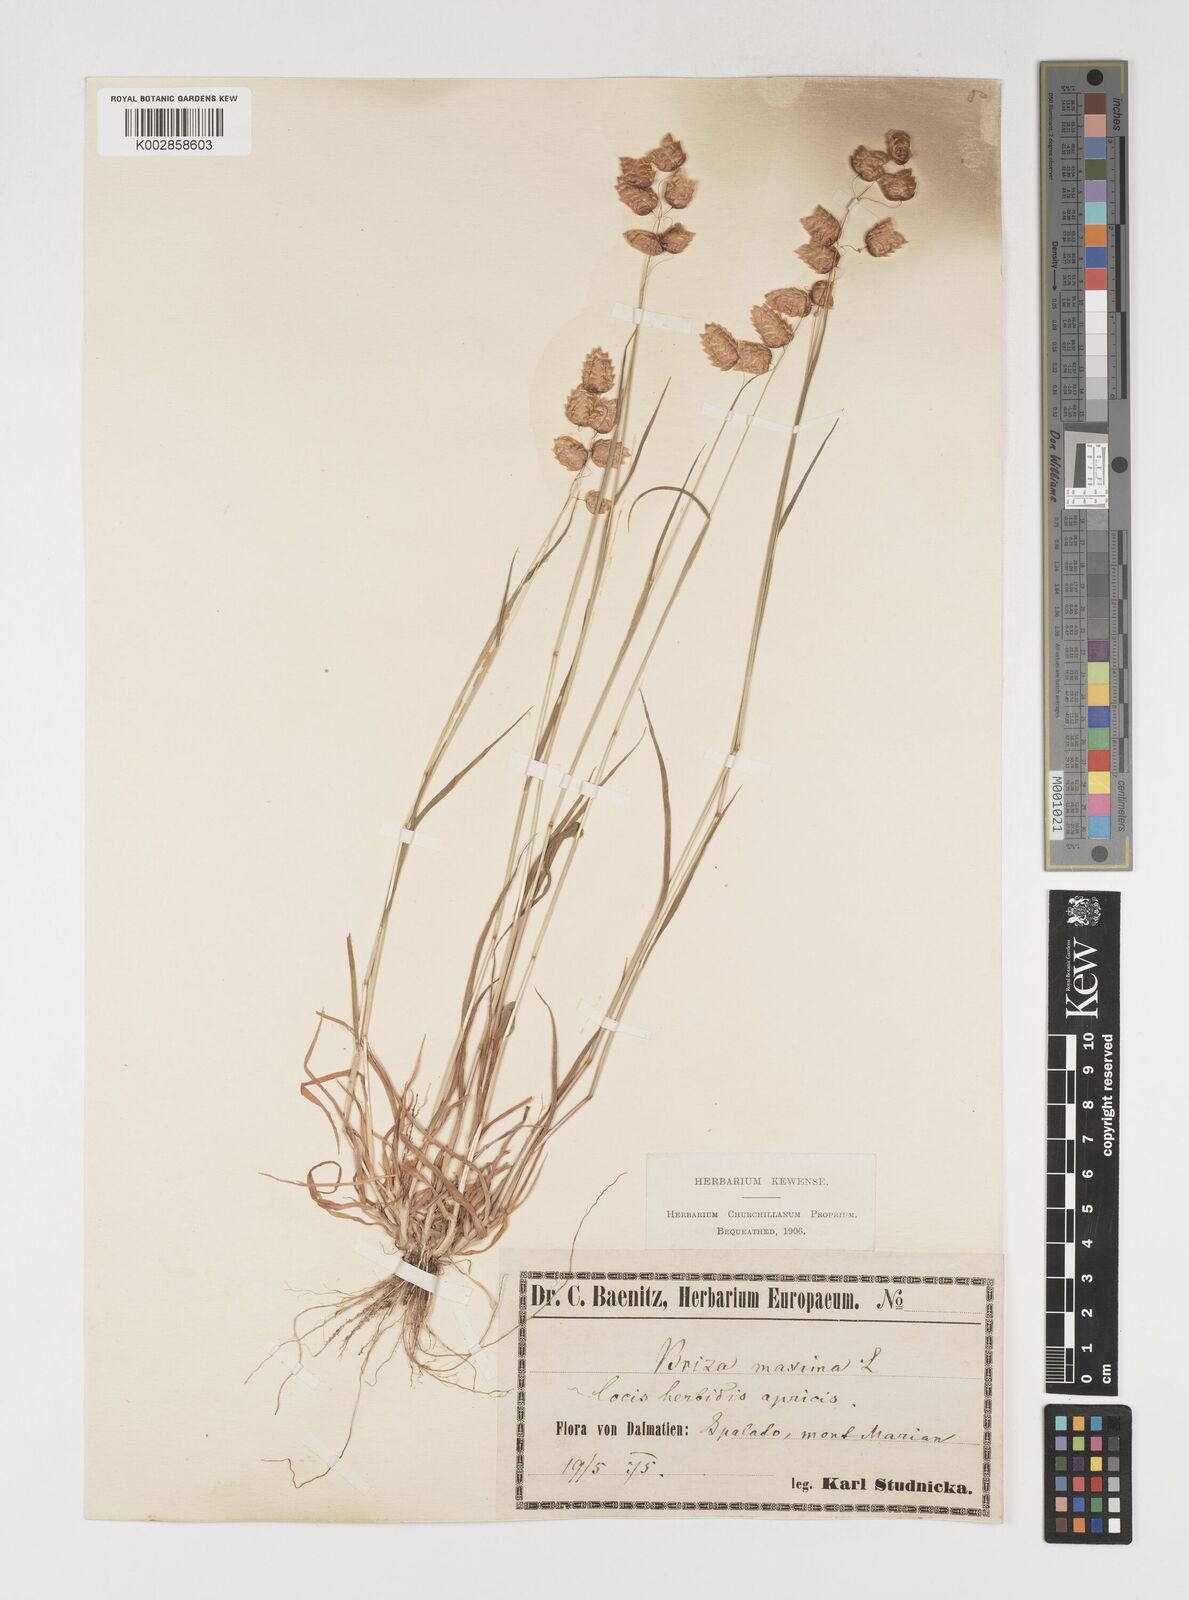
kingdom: Plantae
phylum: Tracheophyta
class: Liliopsida
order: Poales
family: Poaceae
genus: Briza
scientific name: Briza maxima
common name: Big quakinggrass
